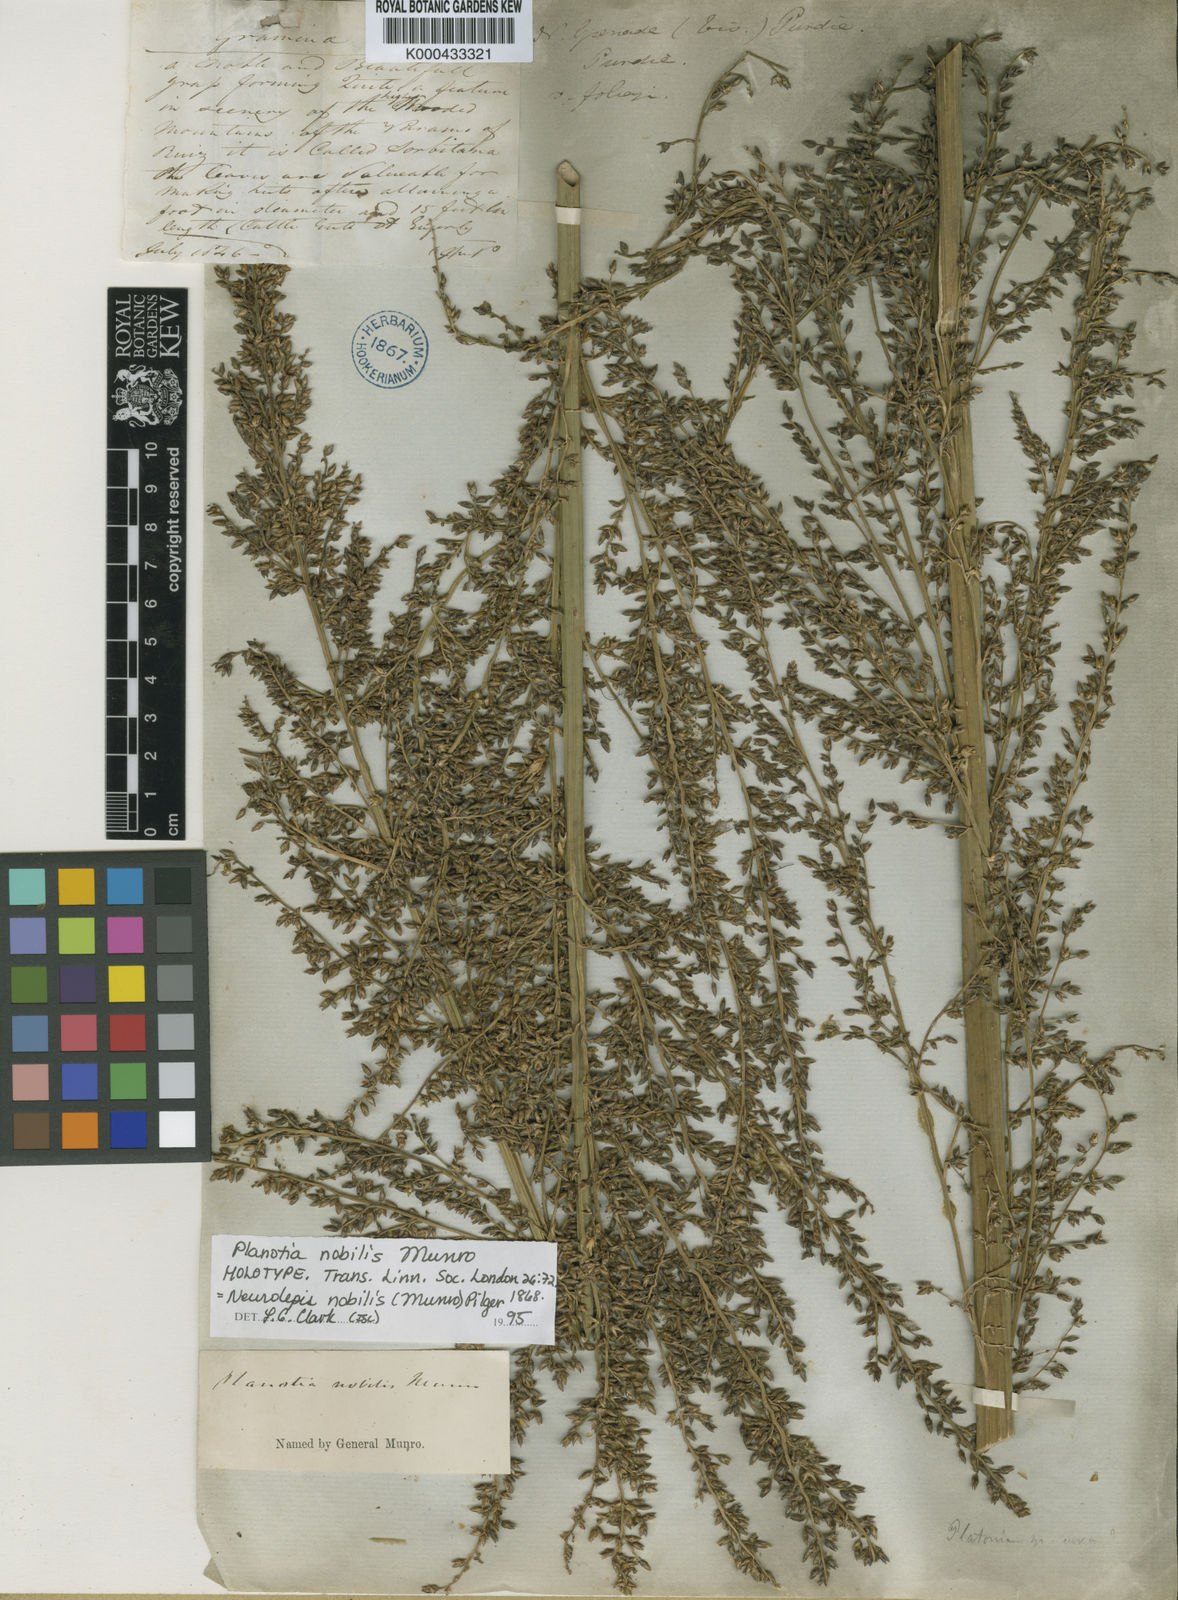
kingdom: Plantae
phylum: Tracheophyta
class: Liliopsida
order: Poales
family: Poaceae
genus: Chusquea
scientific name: Chusquea nobilis
